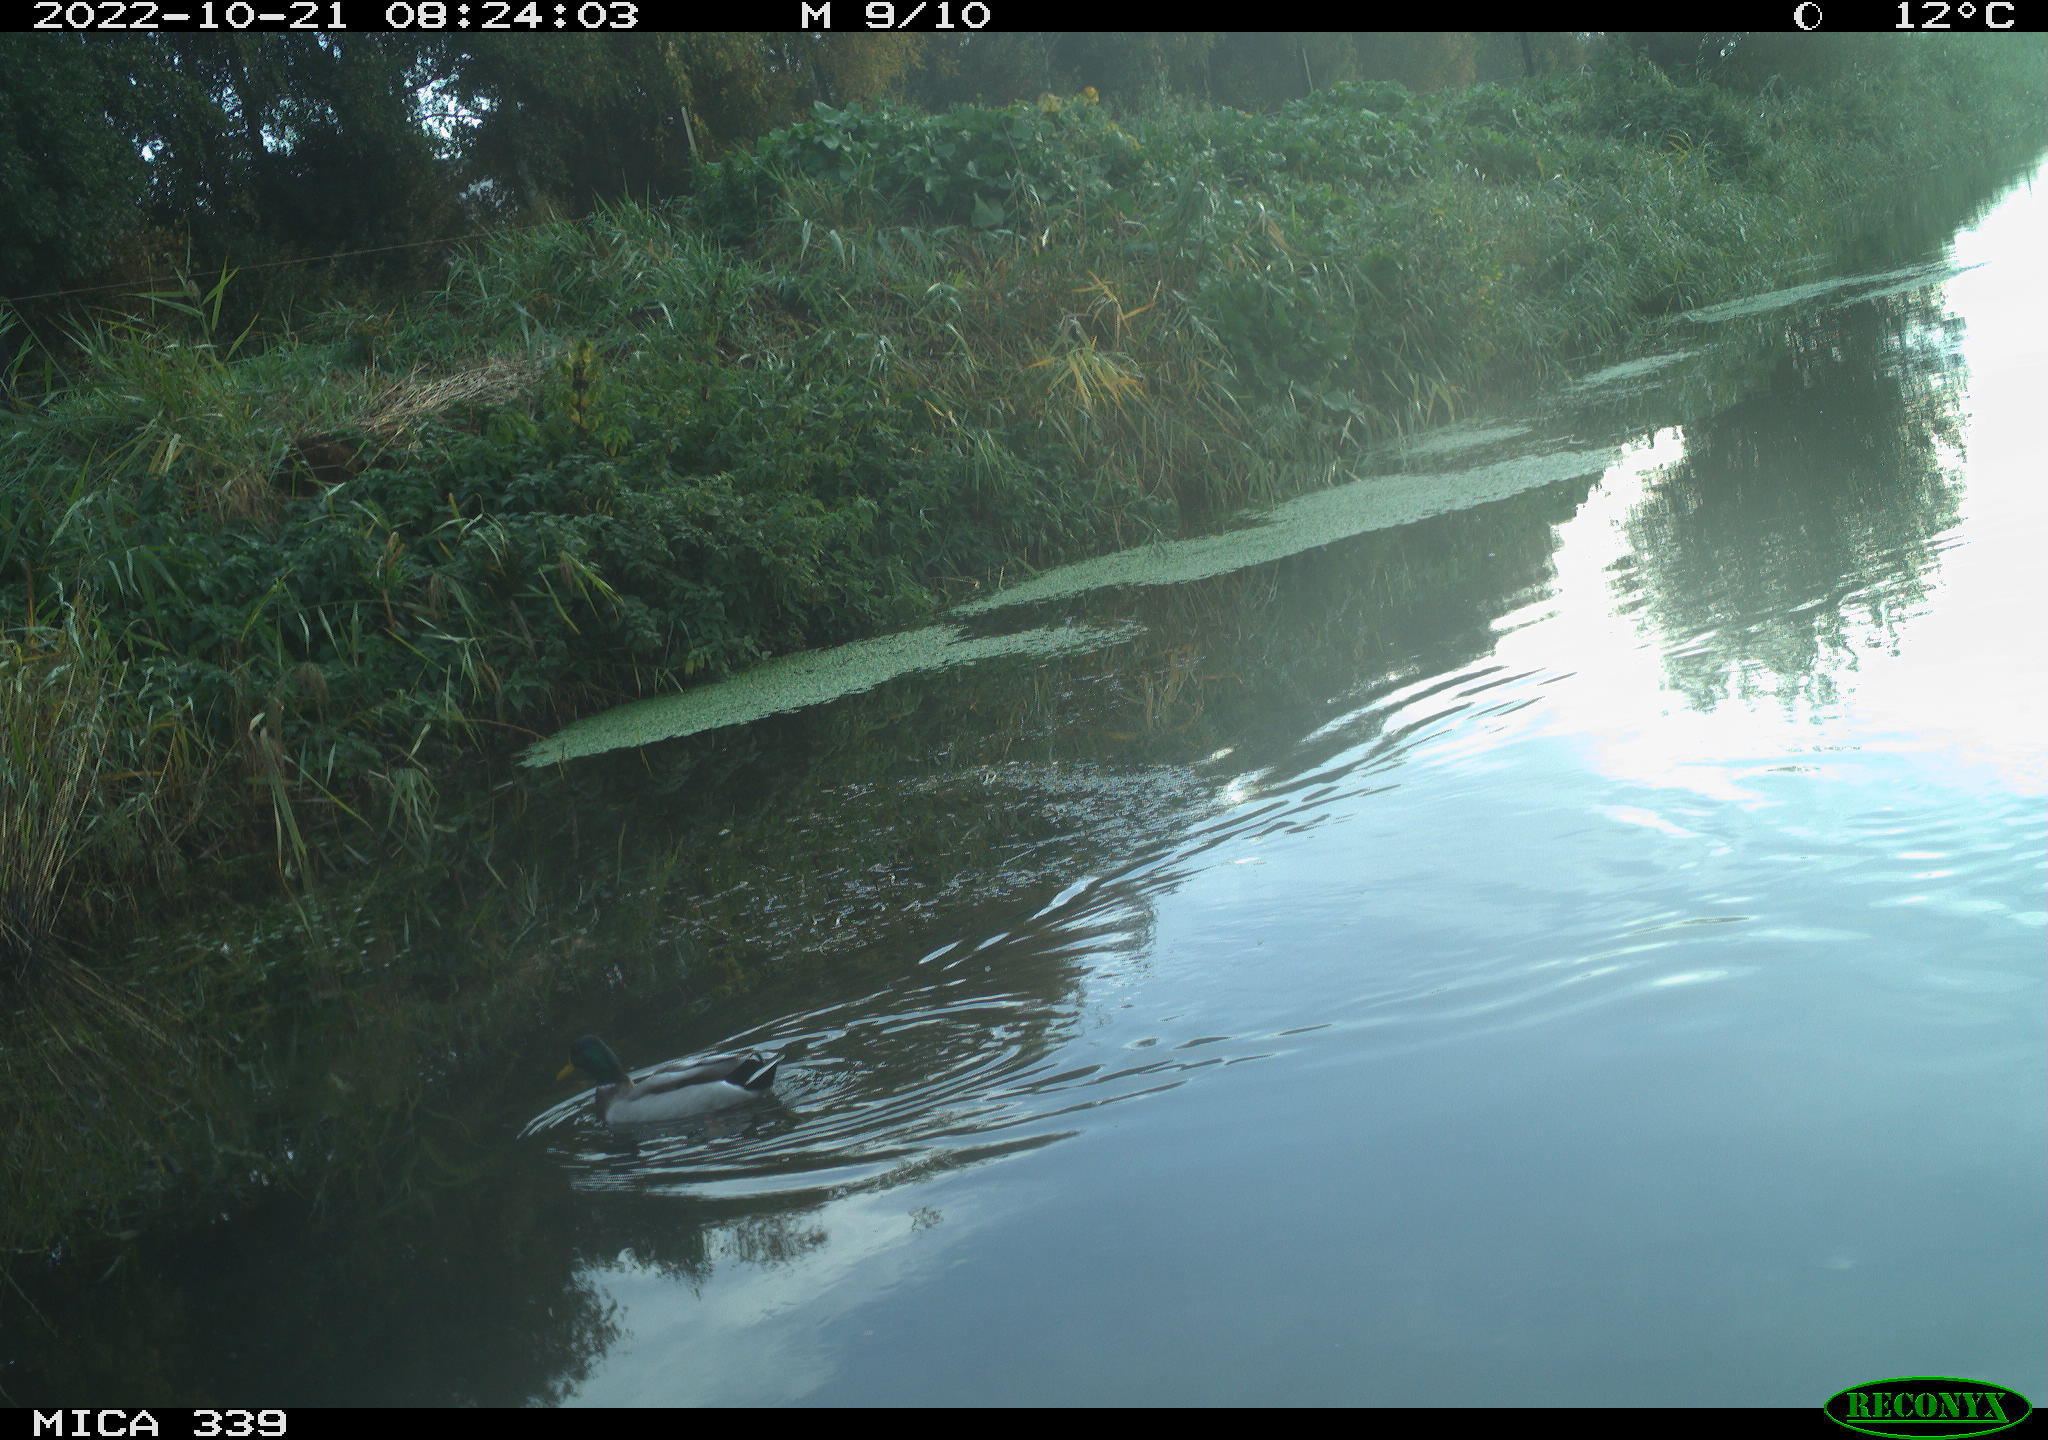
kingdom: Animalia
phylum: Chordata
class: Aves
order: Anseriformes
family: Anatidae
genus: Anas
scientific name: Anas platyrhynchos
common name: Mallard
